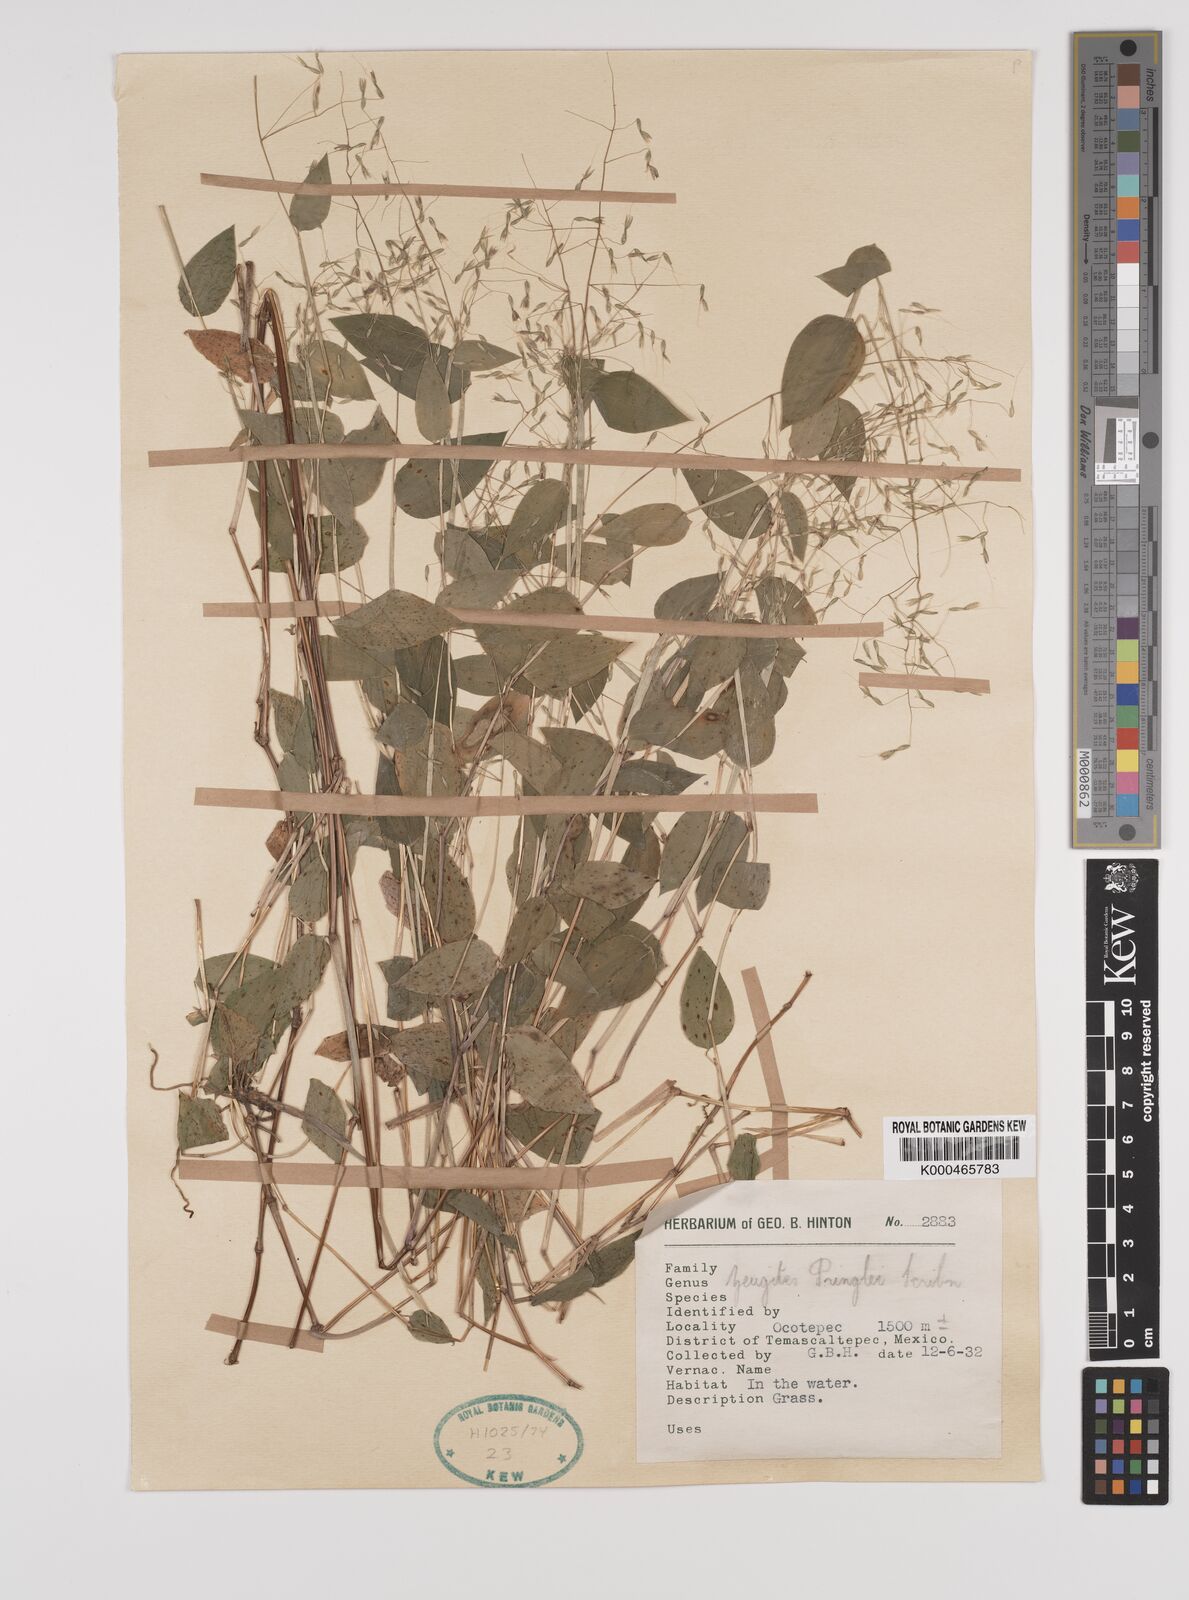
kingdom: Plantae
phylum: Tracheophyta
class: Liliopsida
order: Poales
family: Poaceae
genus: Zeugites
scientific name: Zeugites americanus
